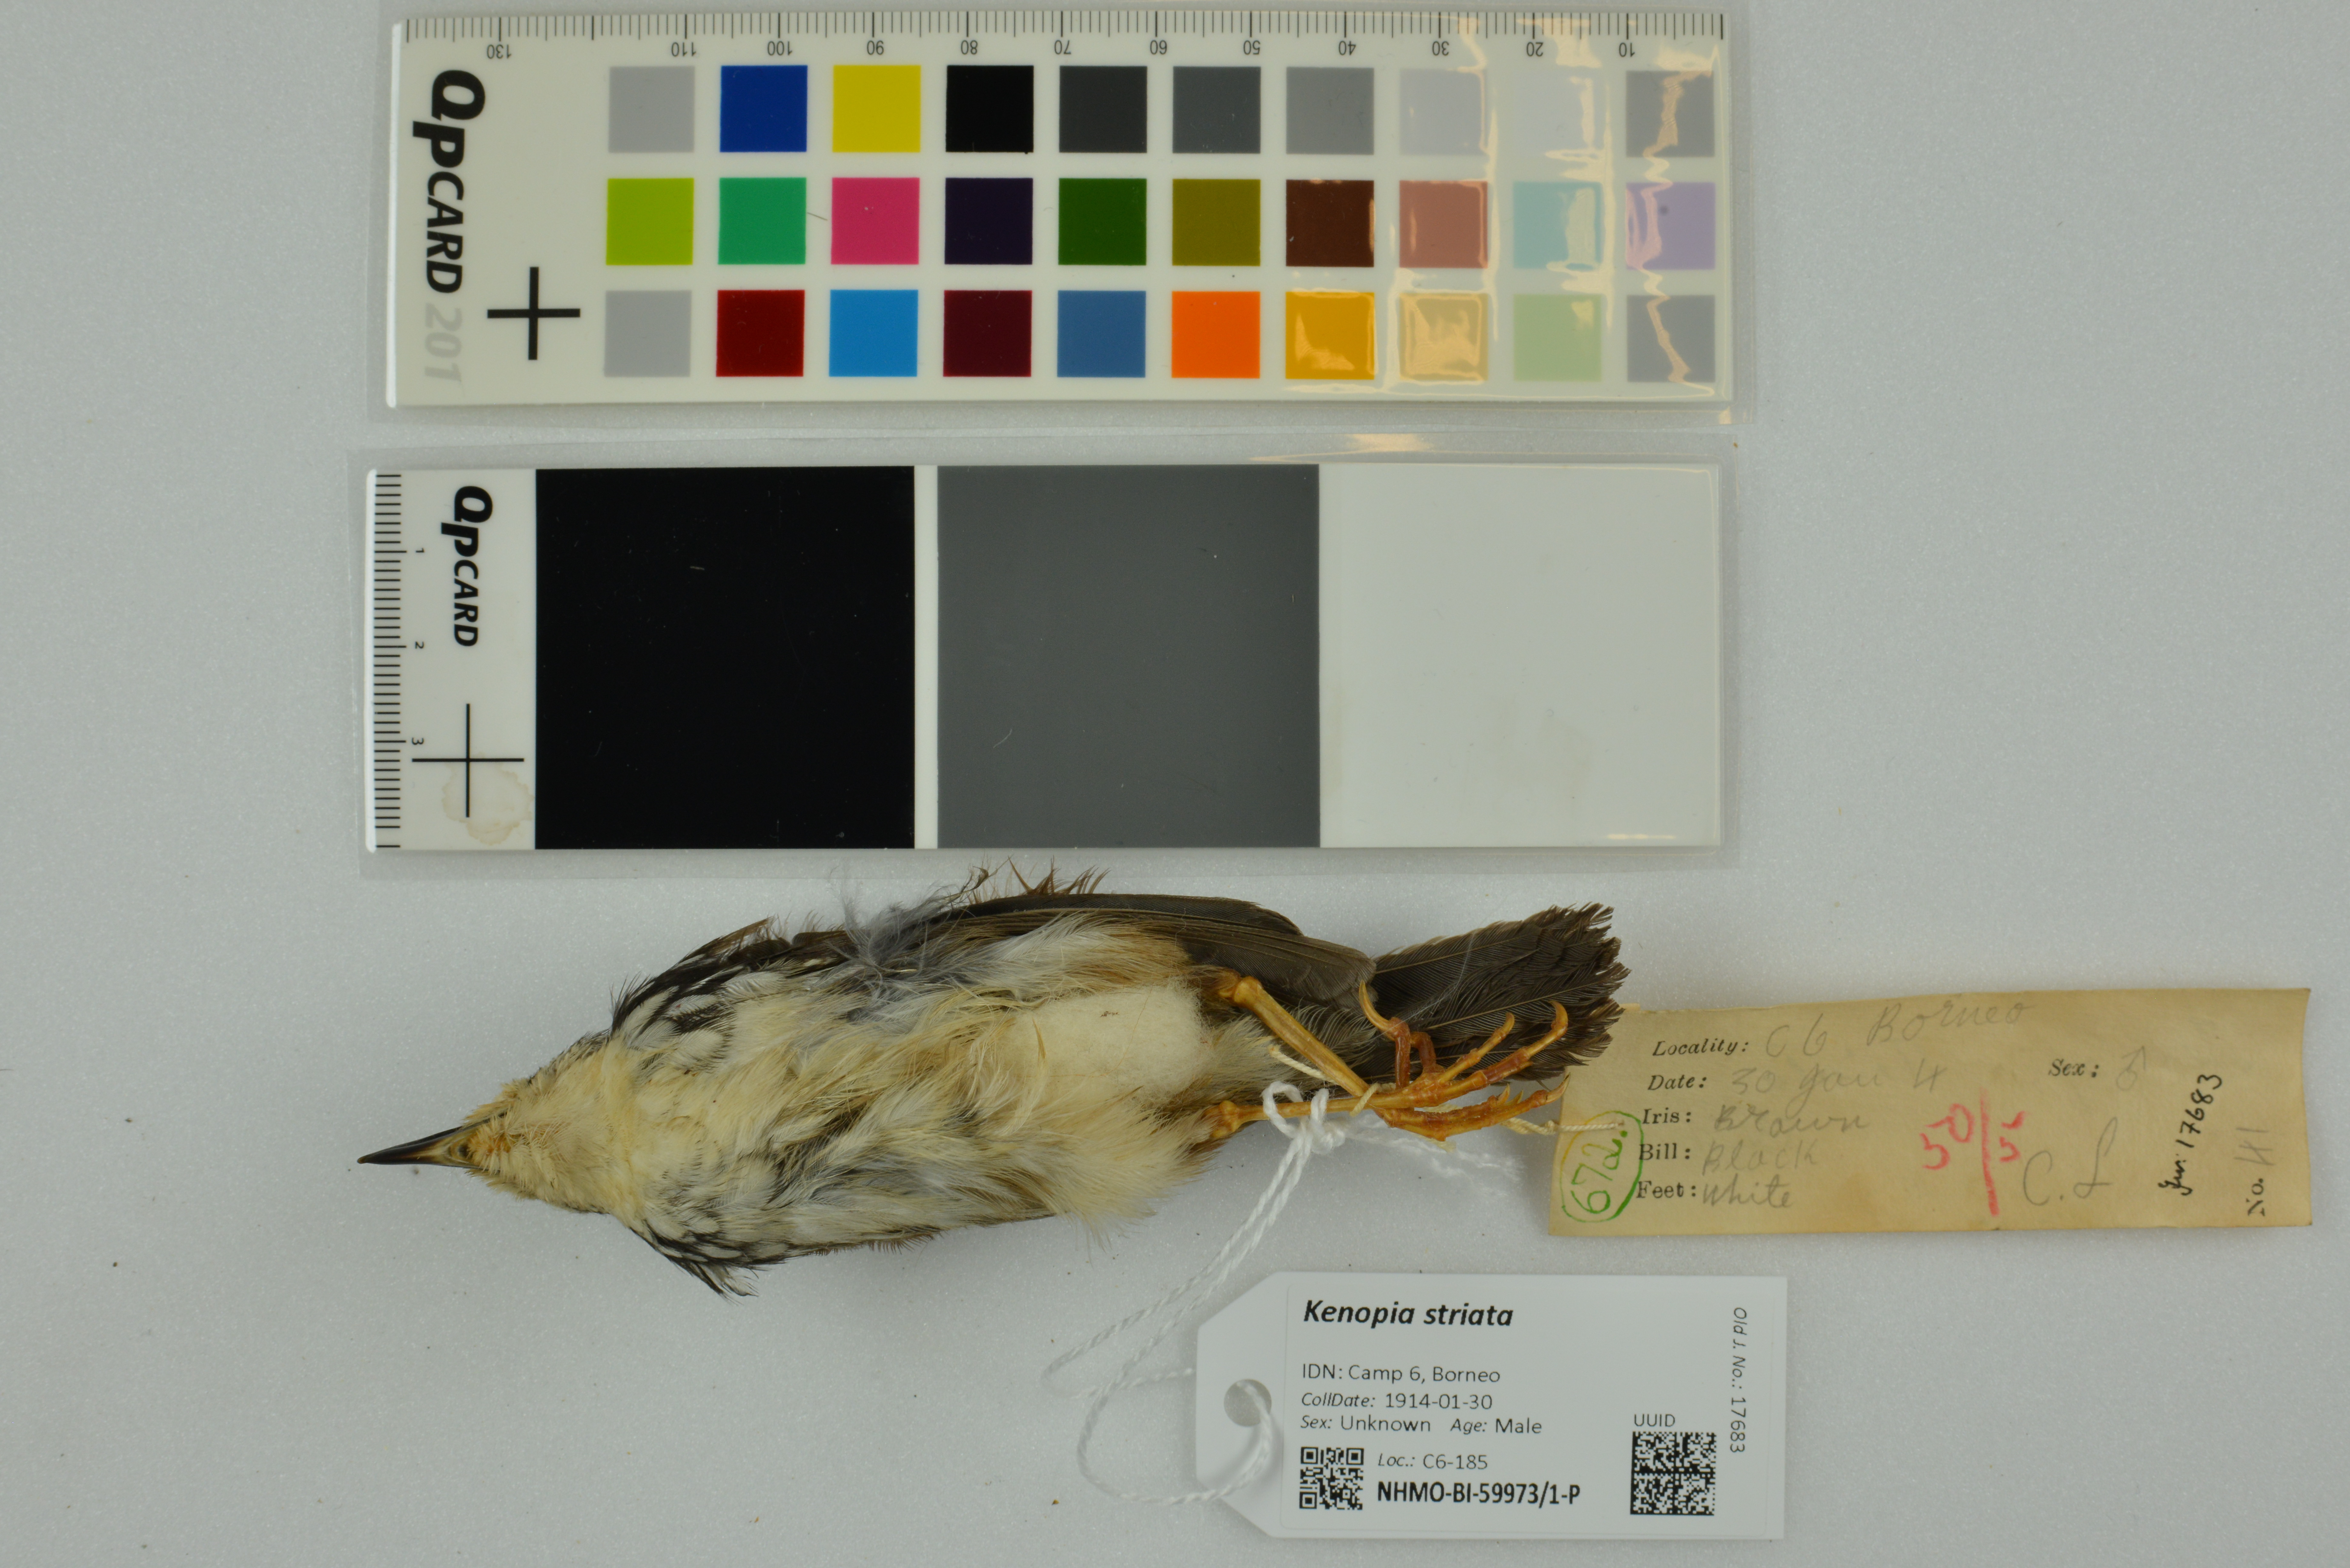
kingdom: Animalia
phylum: Chordata
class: Aves
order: Passeriformes
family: Pellorneidae
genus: Kenopia
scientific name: Kenopia striata
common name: Striped wren-babbler
